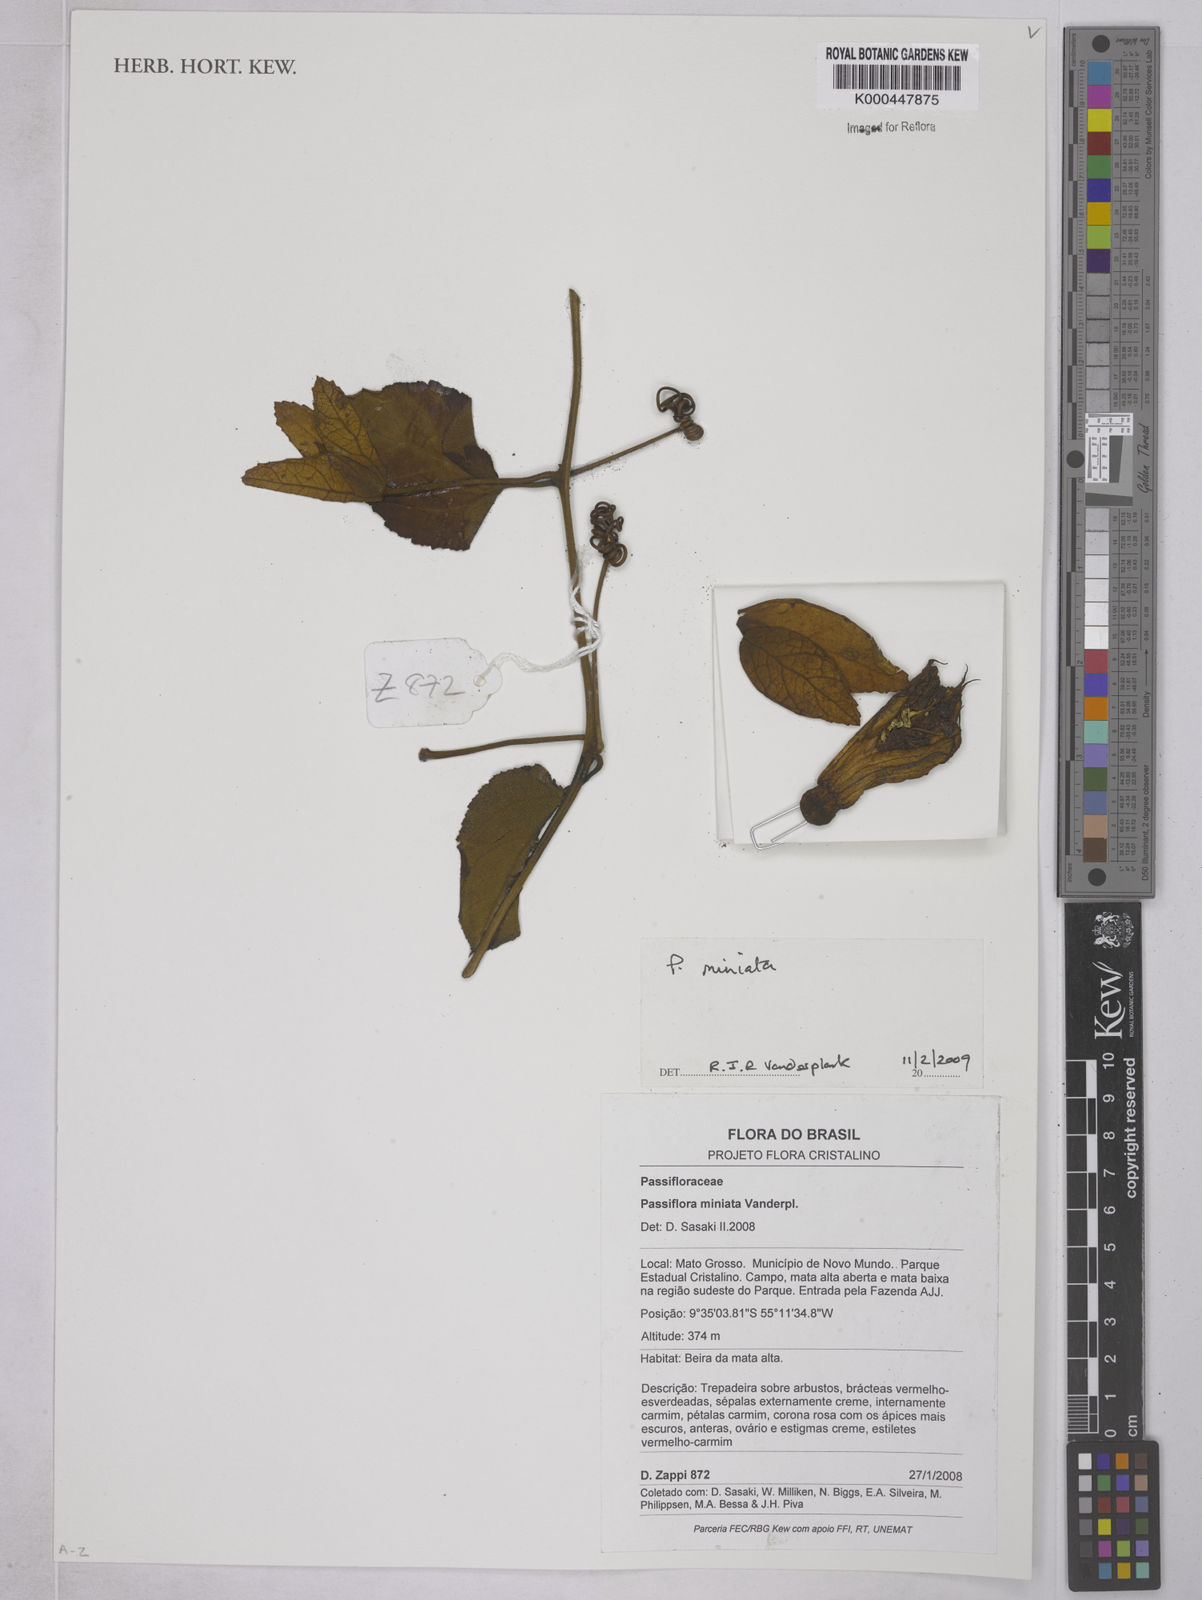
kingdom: Plantae
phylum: Tracheophyta
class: Magnoliopsida
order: Lamiales
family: Lamiaceae
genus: Hyptis
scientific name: Hyptis pachyarthra
